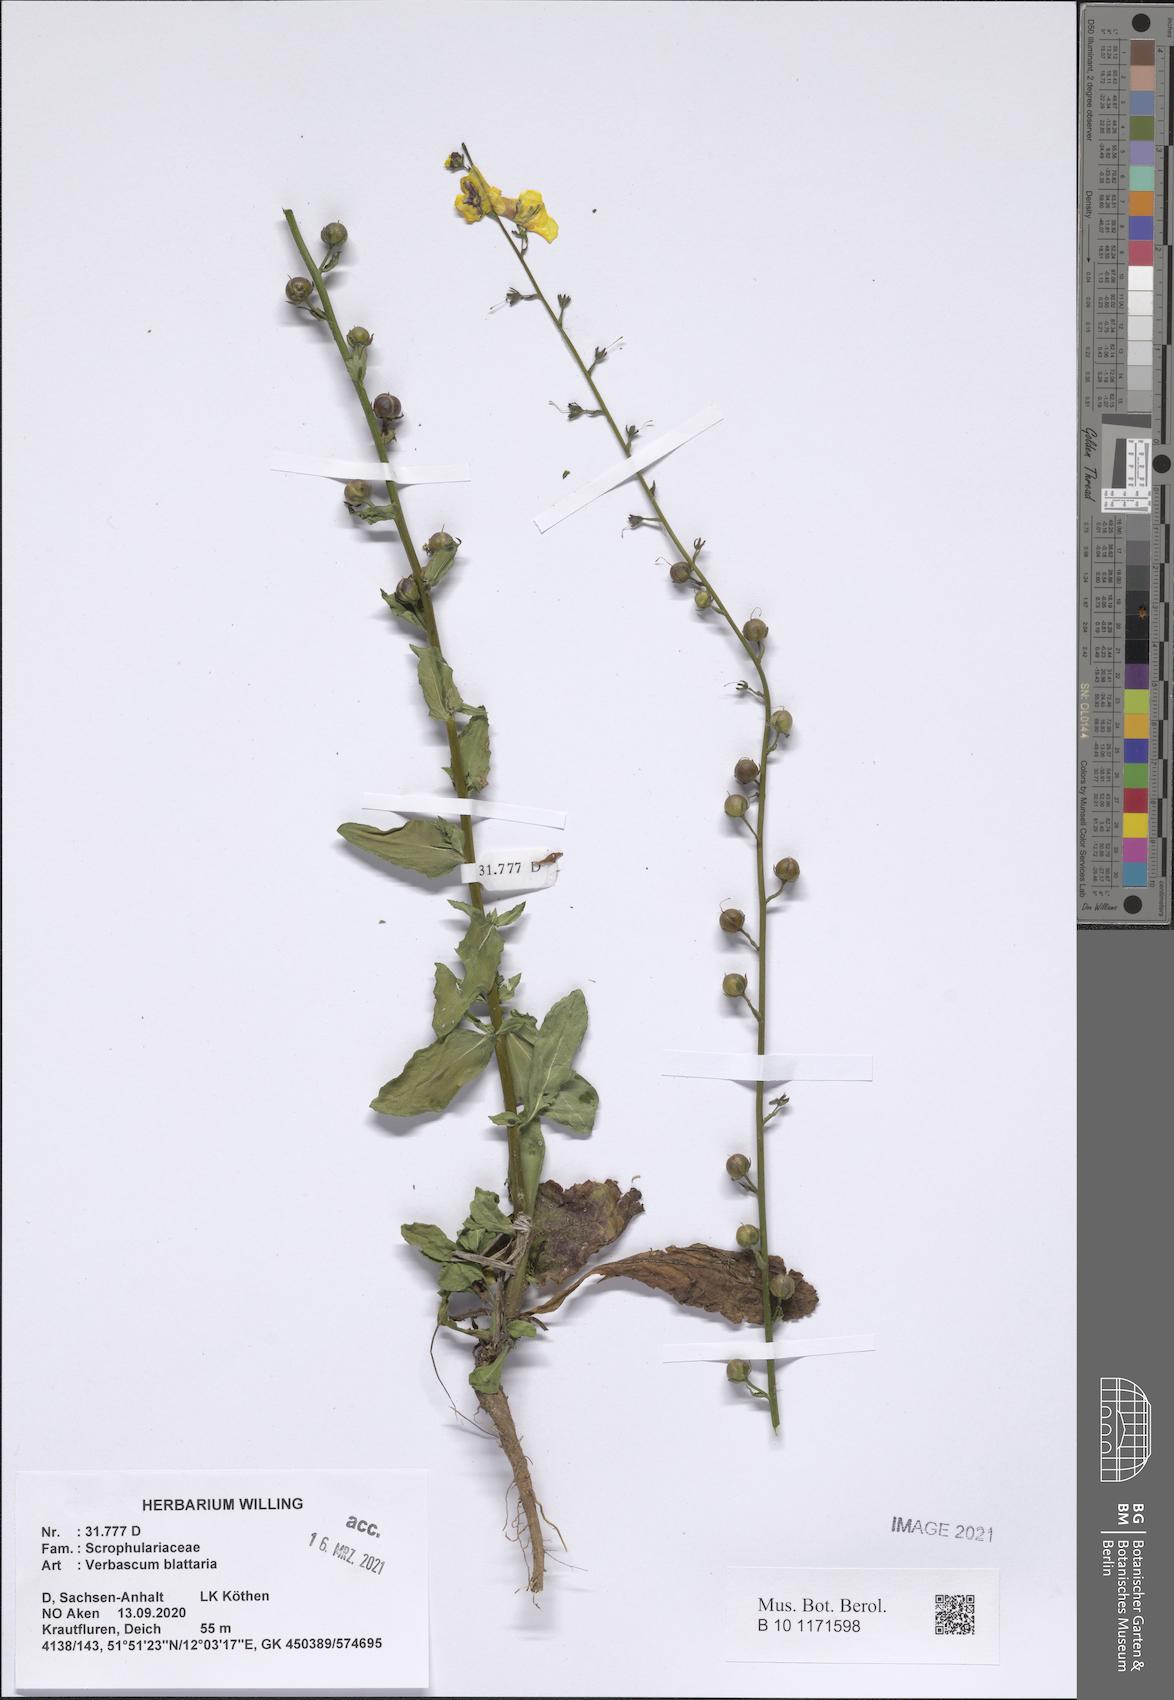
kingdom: Plantae
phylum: Tracheophyta
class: Magnoliopsida
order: Lamiales
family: Scrophulariaceae
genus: Verbascum
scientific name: Verbascum blattaria
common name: Moth mullein
